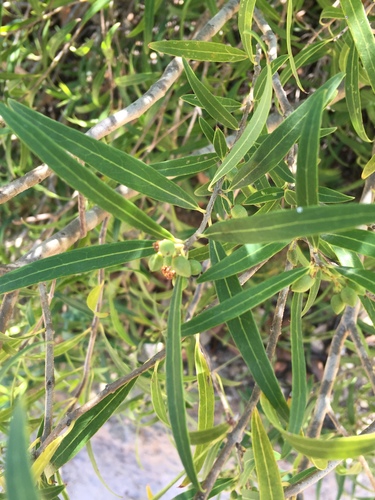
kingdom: Plantae
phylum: Tracheophyta
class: Magnoliopsida
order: Lamiales
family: Oleaceae
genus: Phillyrea
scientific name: Phillyrea angustifolia
